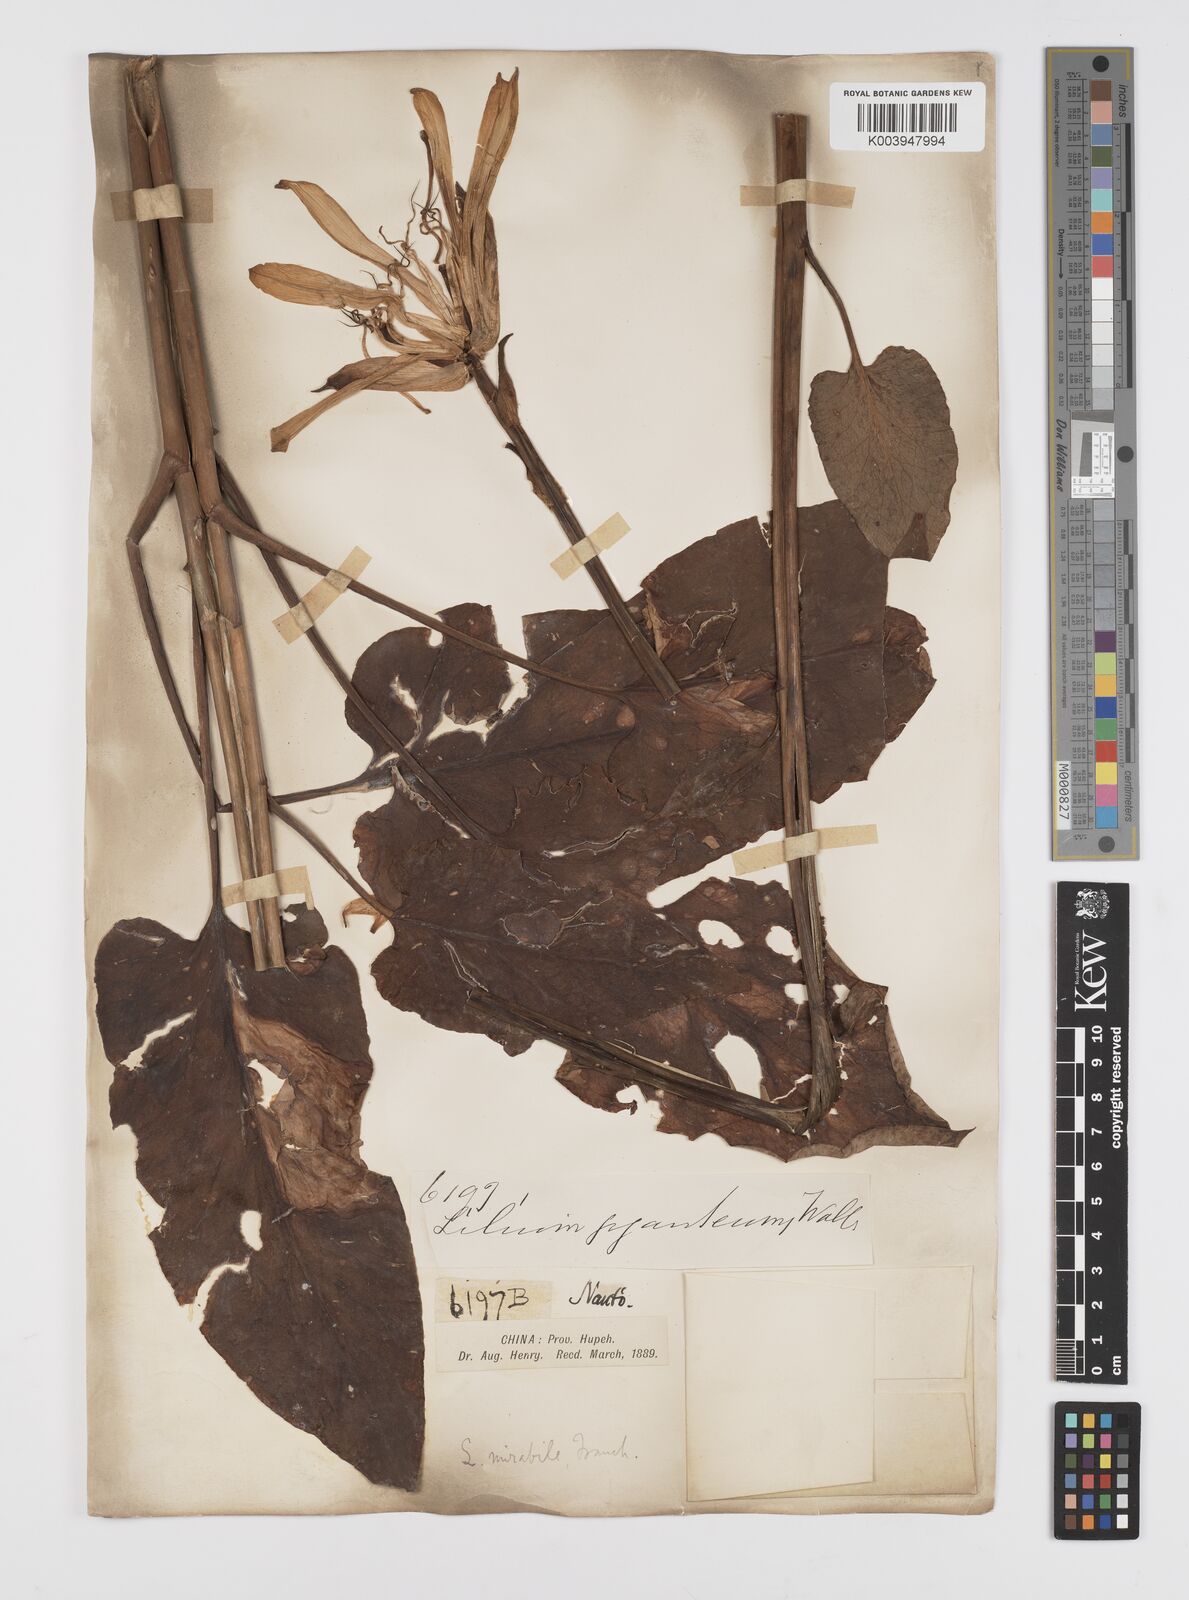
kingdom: Plantae
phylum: Tracheophyta
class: Liliopsida
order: Liliales
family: Liliaceae
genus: Cardiocrinum
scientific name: Cardiocrinum cathayanum
